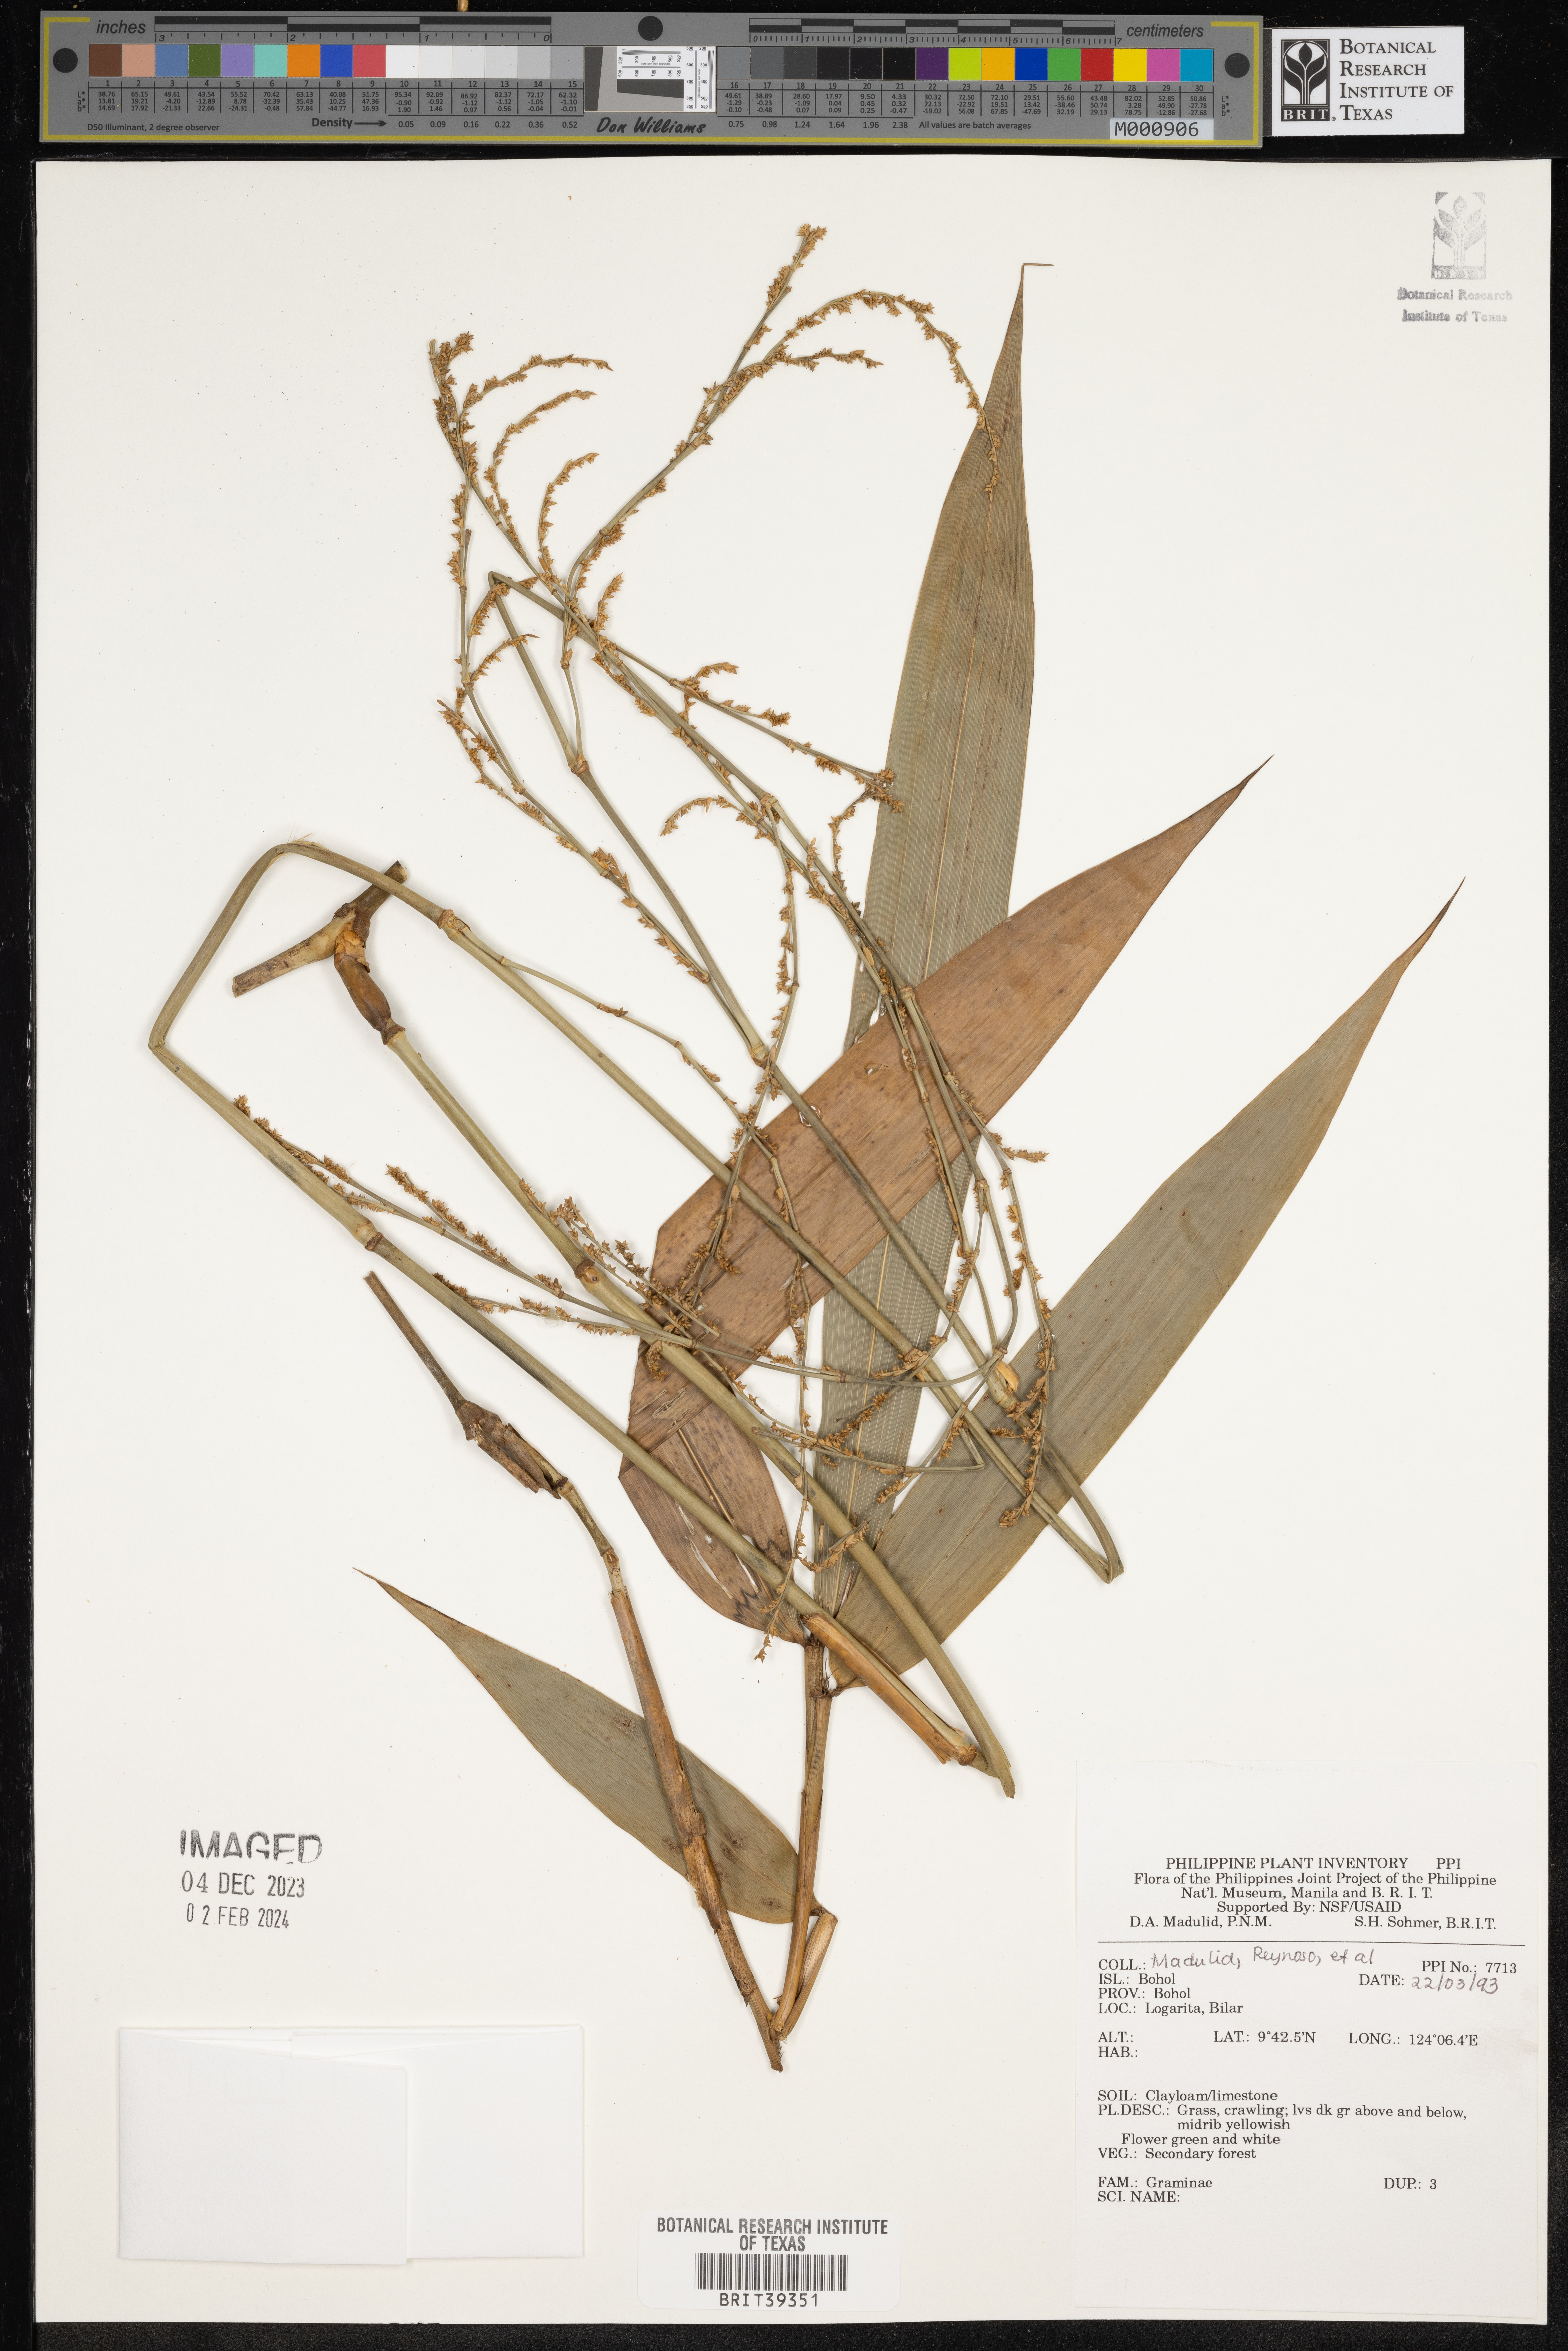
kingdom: Plantae
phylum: Tracheophyta
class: Liliopsida
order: Poales
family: Poaceae
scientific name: Poaceae
